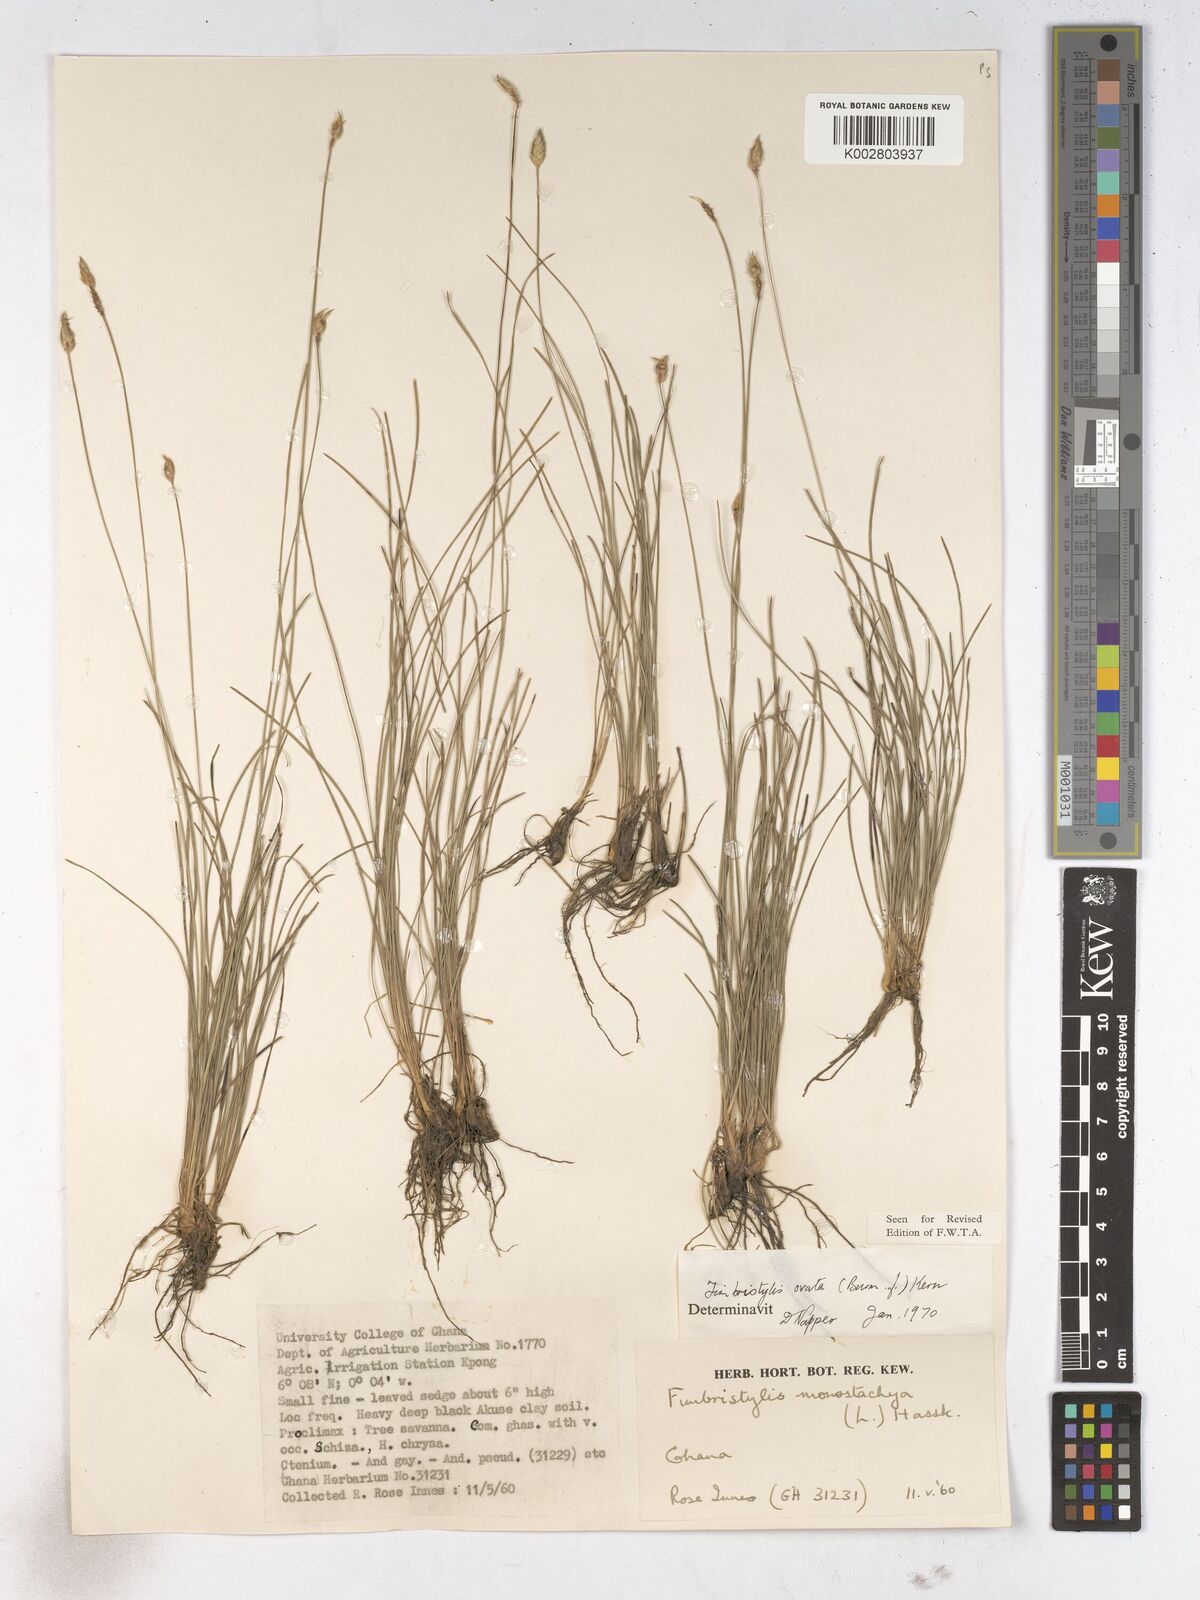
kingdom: Plantae
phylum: Tracheophyta
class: Liliopsida
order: Poales
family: Cyperaceae
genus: Abildgaardia
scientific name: Abildgaardia ovata
